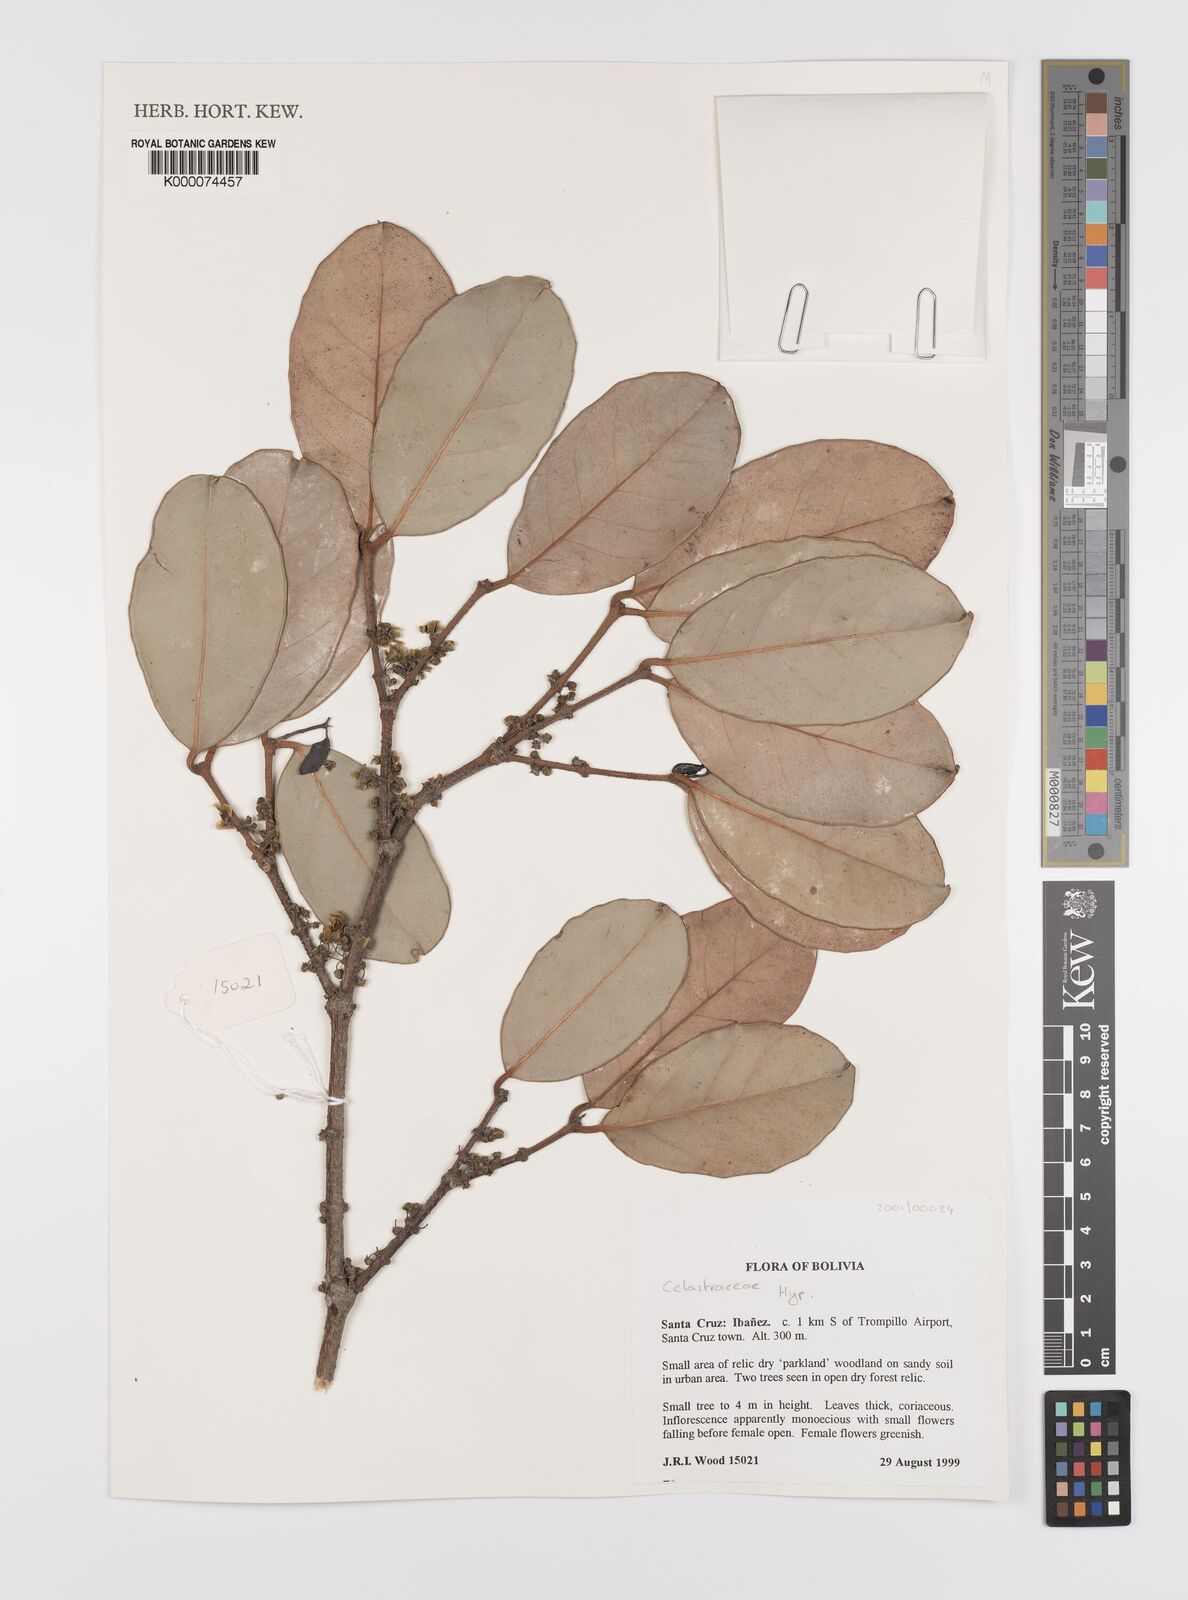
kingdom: Plantae
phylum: Tracheophyta
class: Magnoliopsida
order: Celastrales
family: Celastraceae
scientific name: Celastraceae
